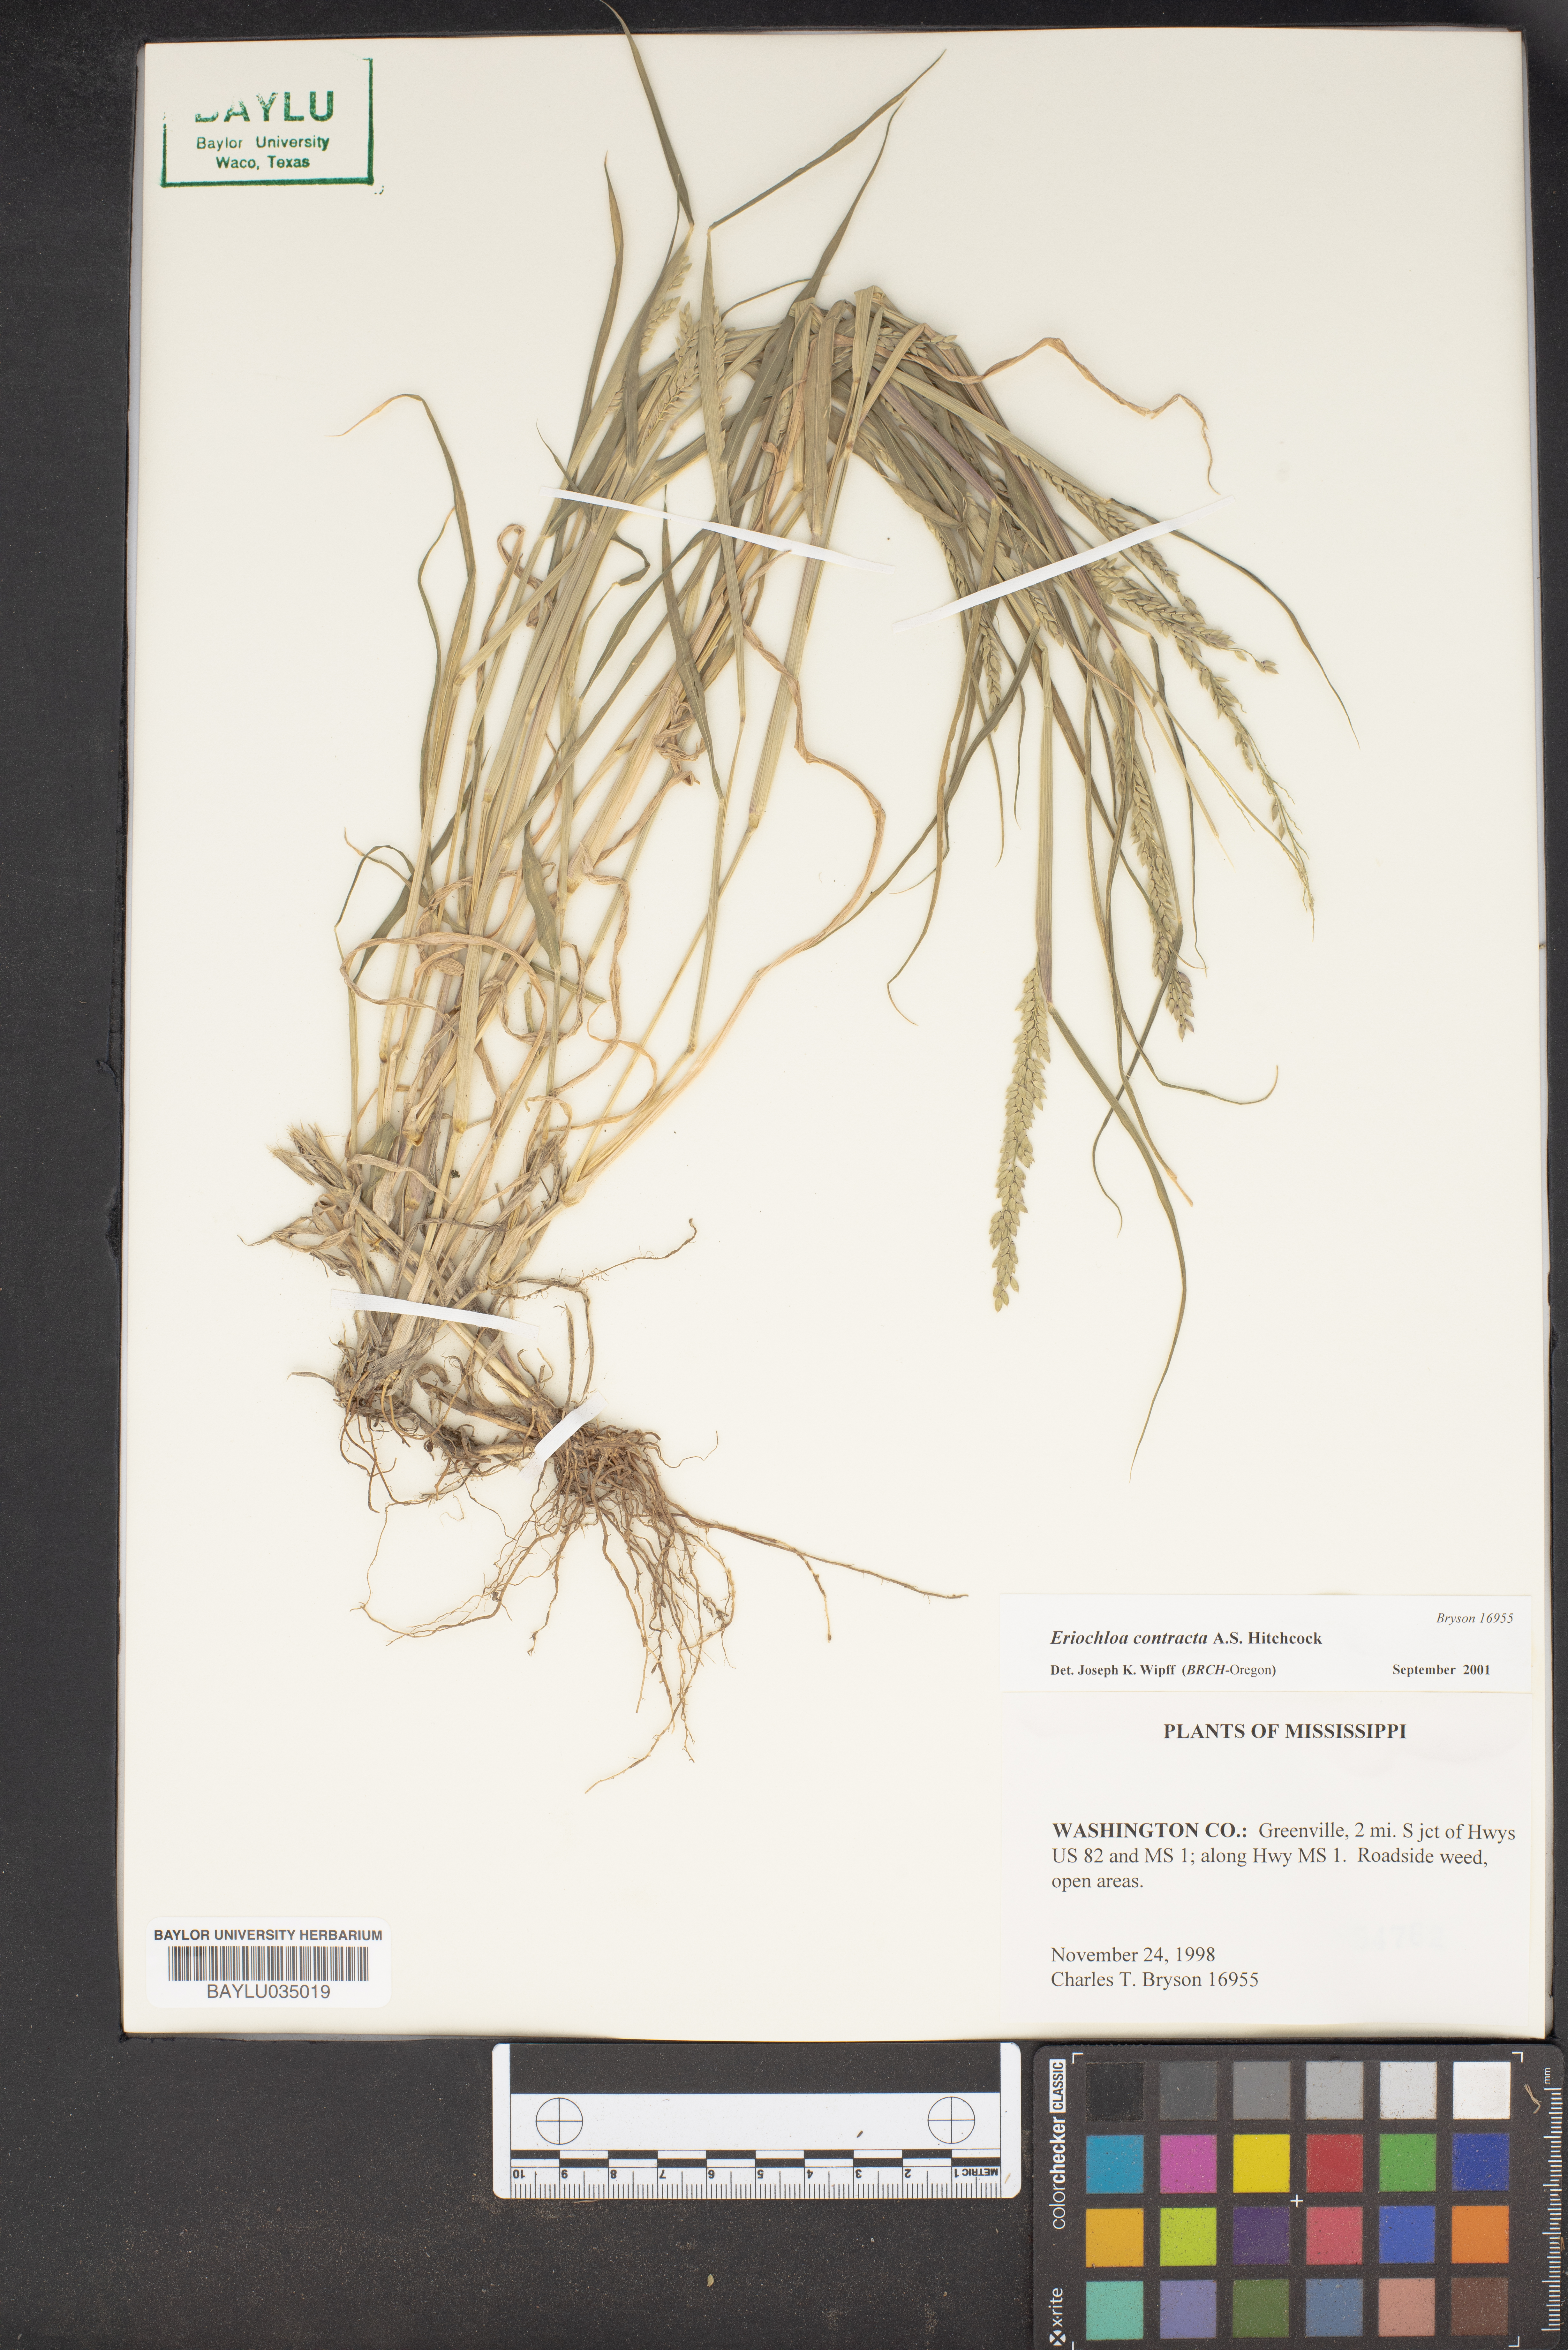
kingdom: Plantae
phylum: Tracheophyta
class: Liliopsida
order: Poales
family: Poaceae
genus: Eriochloa
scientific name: Eriochloa contracta
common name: Prairie cup grass
